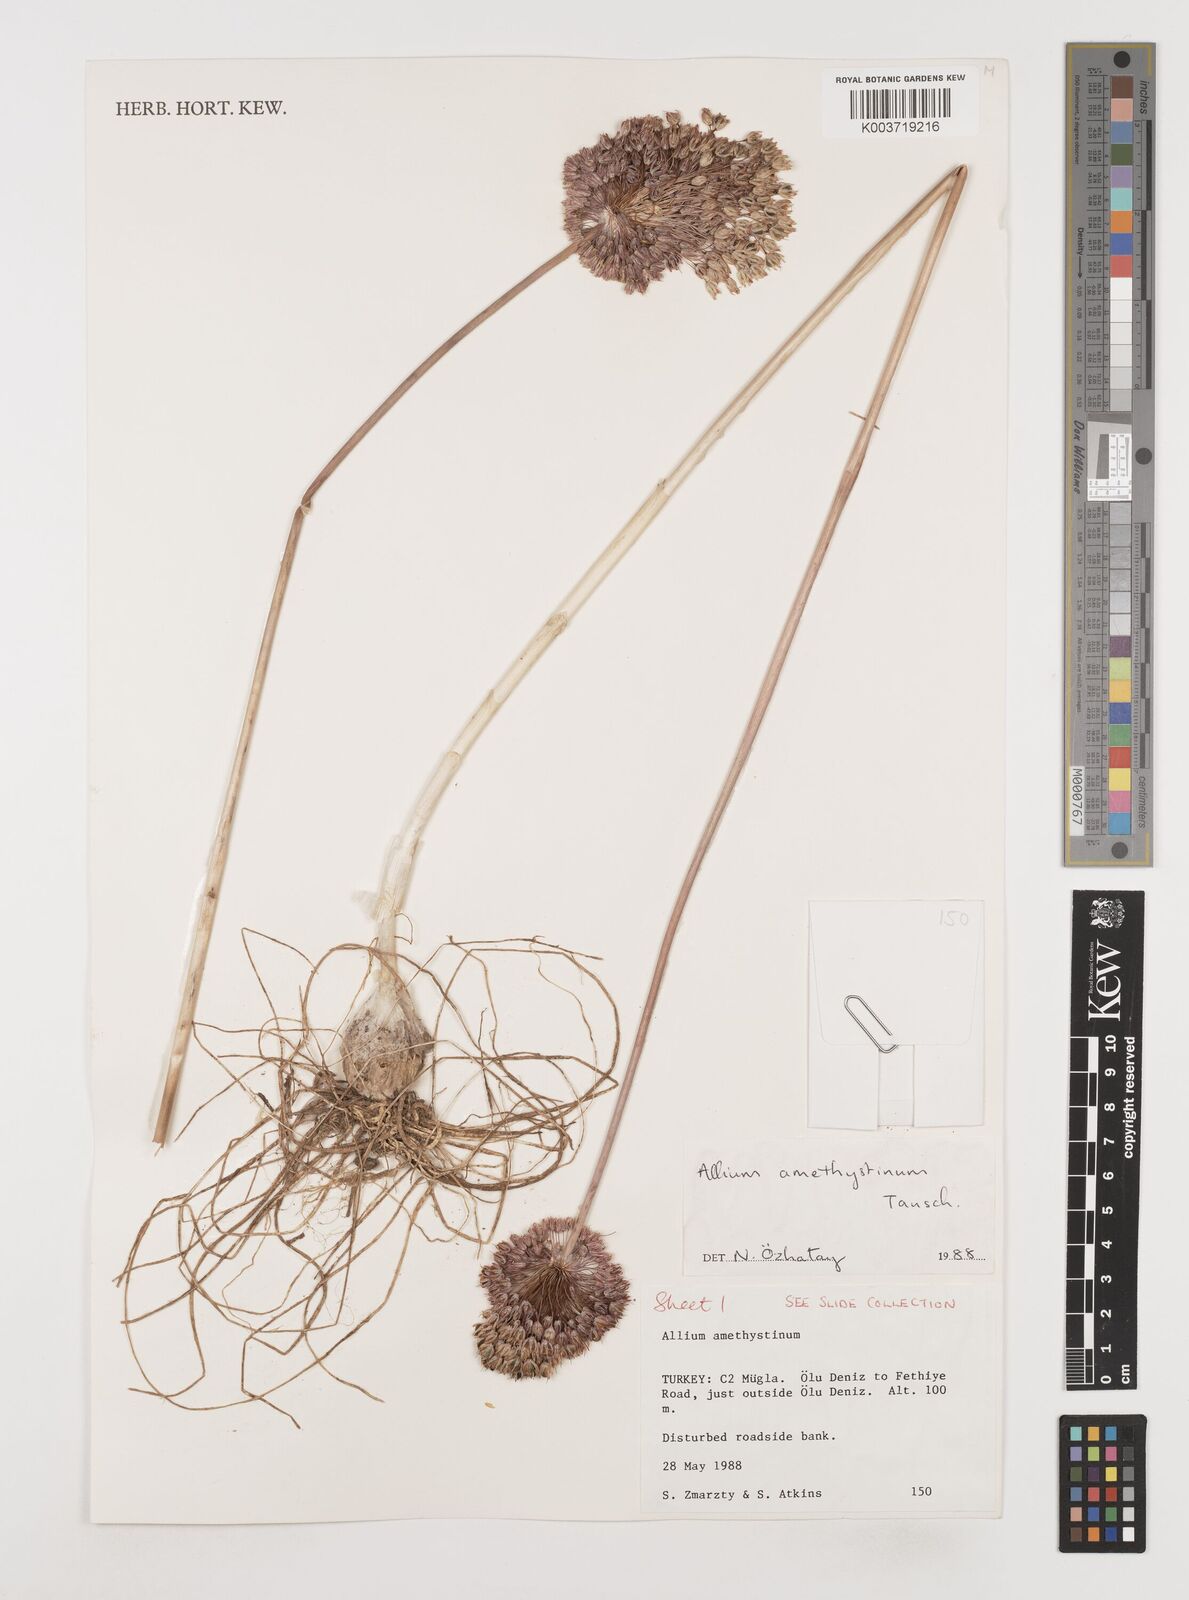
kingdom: Plantae
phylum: Tracheophyta
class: Liliopsida
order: Asparagales
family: Amaryllidaceae
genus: Allium
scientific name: Allium amethystinum
